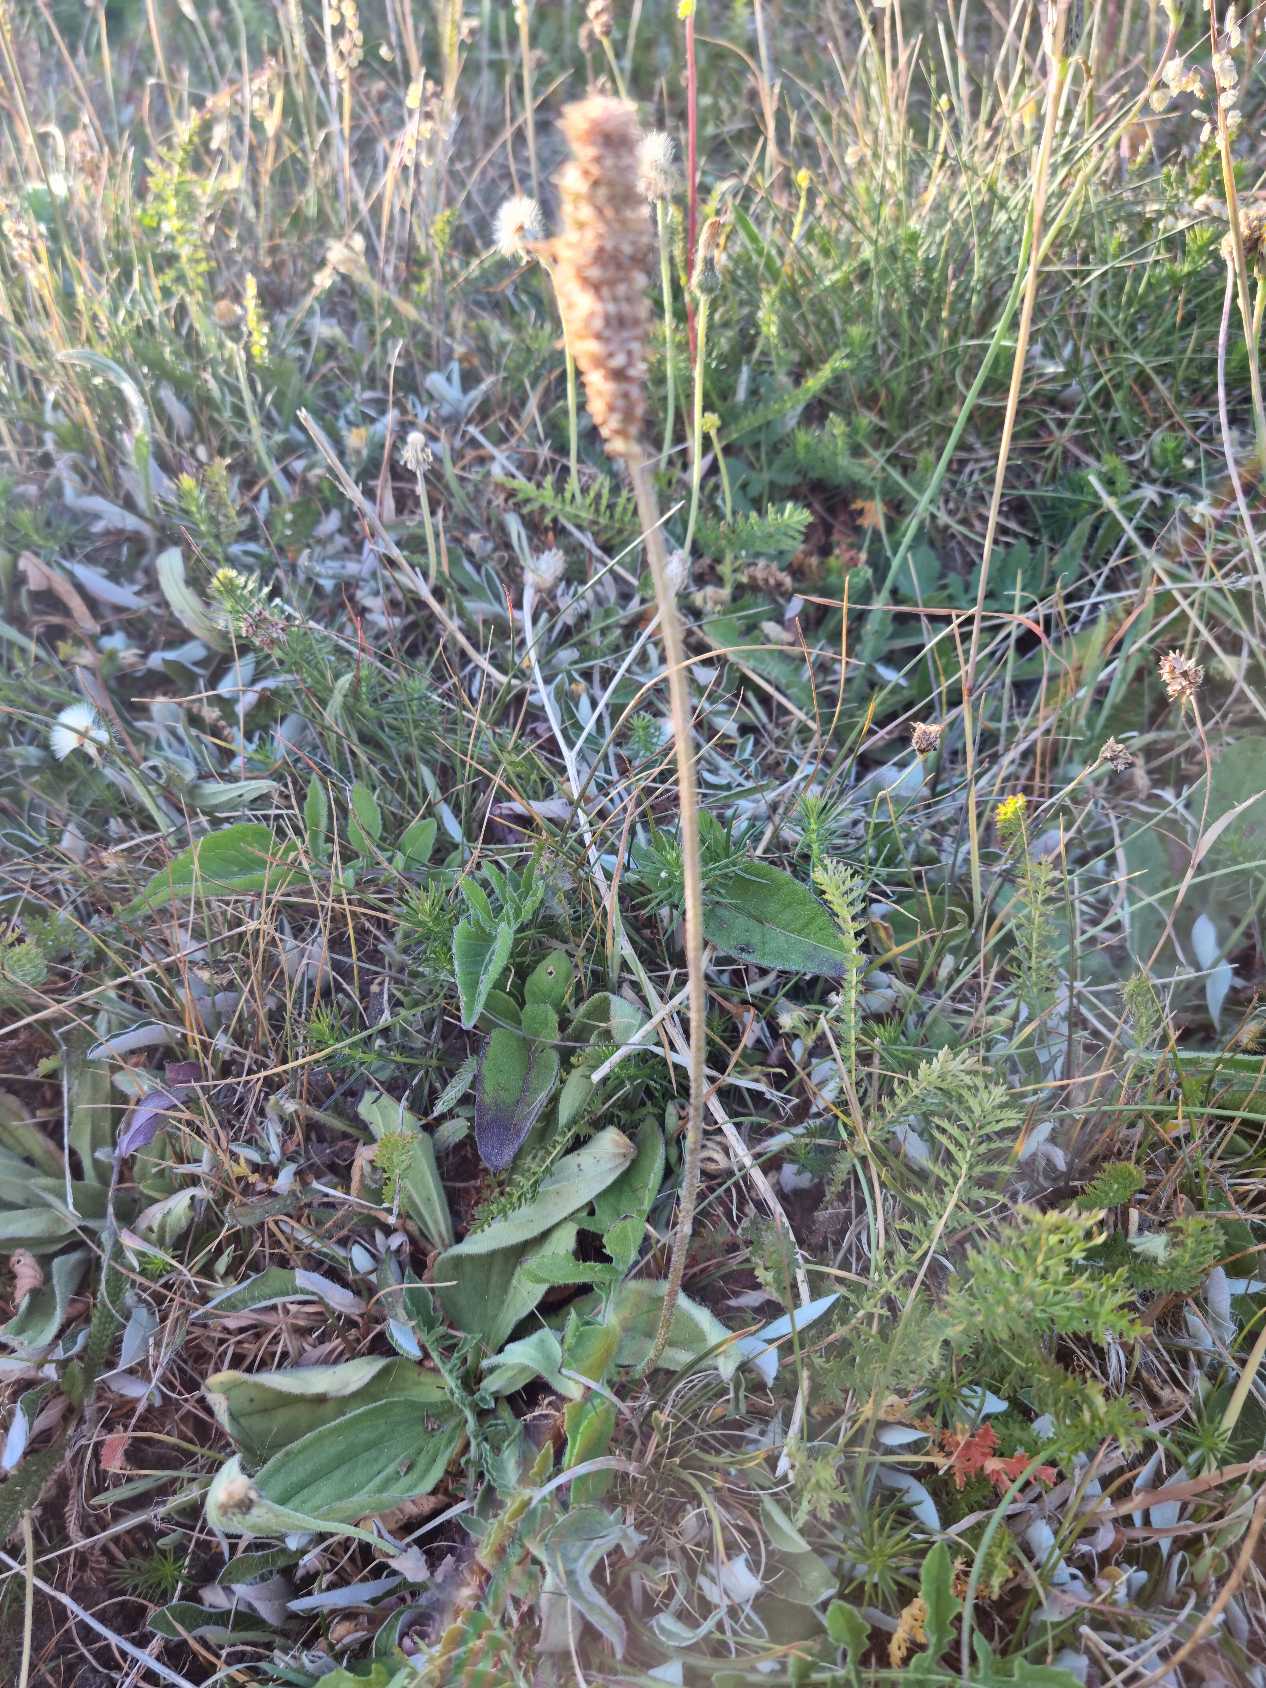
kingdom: Plantae
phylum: Tracheophyta
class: Magnoliopsida
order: Lamiales
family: Plantaginaceae
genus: Plantago
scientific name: Plantago media
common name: Dunet vejbred
